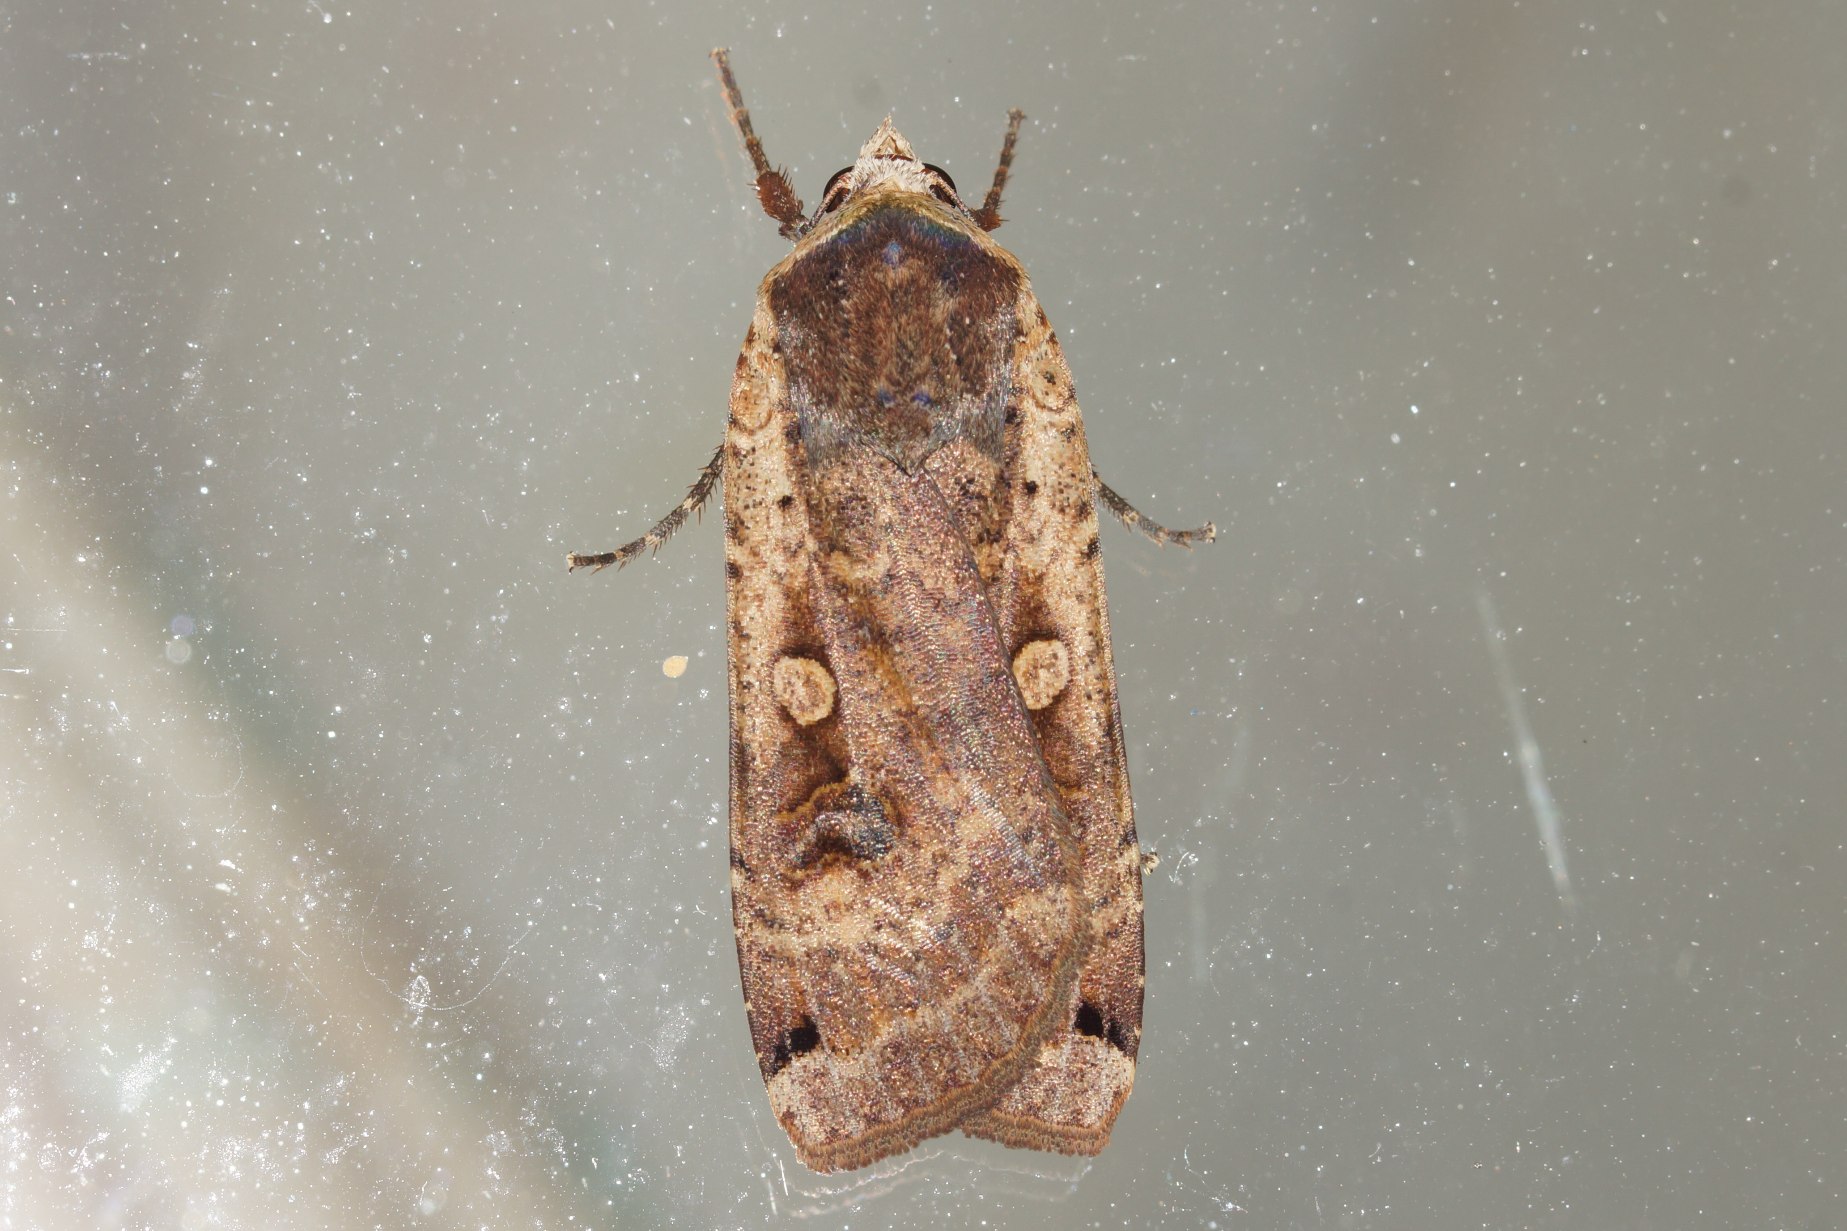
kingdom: Animalia
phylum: Arthropoda
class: Insecta
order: Lepidoptera
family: Noctuidae
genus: Noctua
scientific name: Noctua pronuba
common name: Stor smutugle
